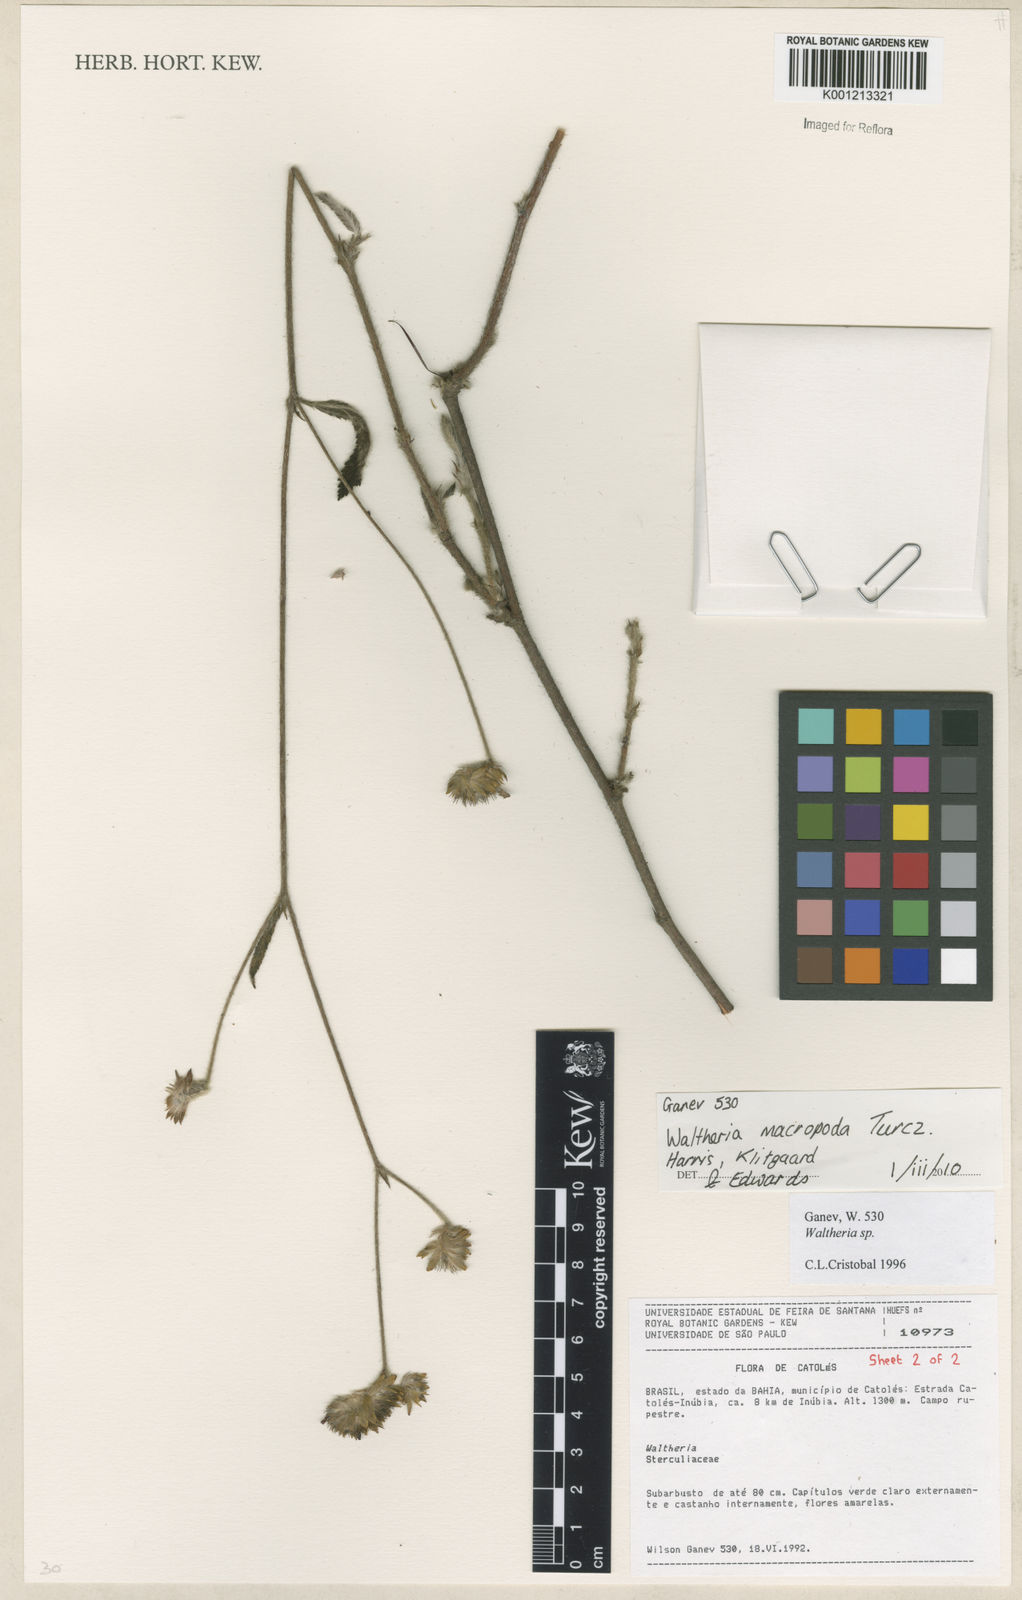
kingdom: Plantae
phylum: Tracheophyta
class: Magnoliopsida
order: Malvales
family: Malvaceae
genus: Waltheria
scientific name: Waltheria bracteosa
